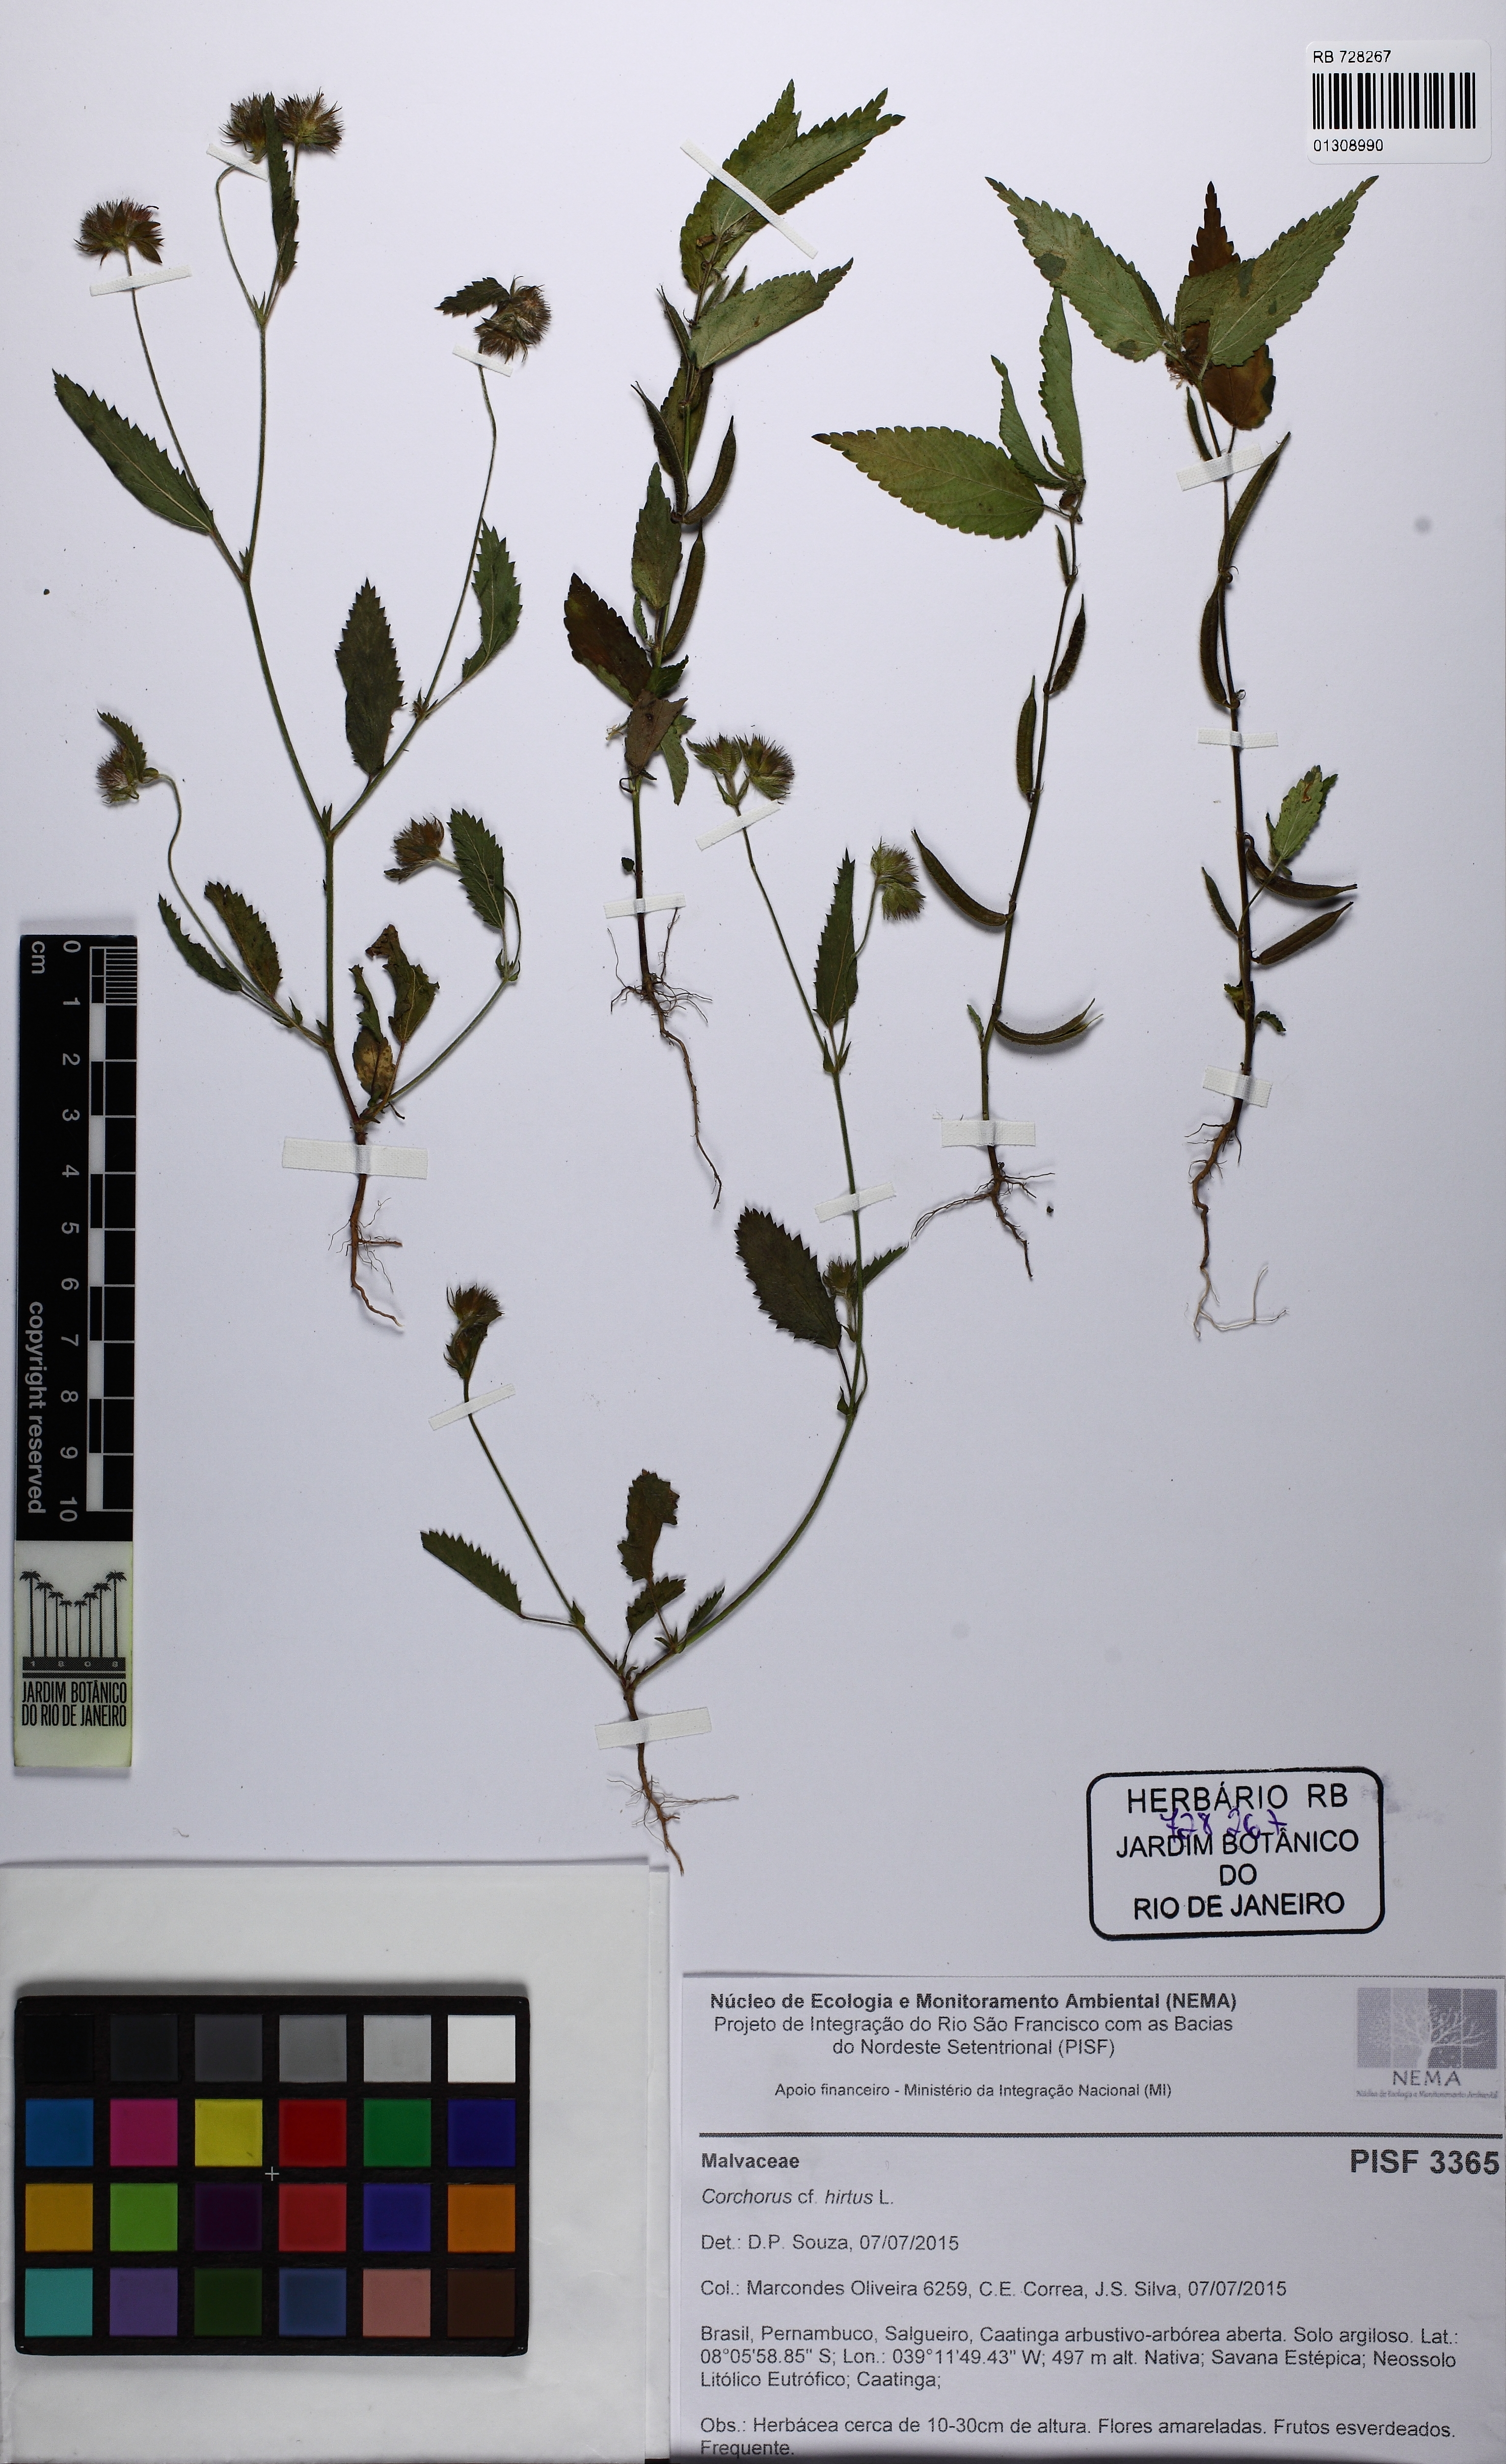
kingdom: Plantae
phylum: Tracheophyta
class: Magnoliopsida
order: Malvales
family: Malvaceae
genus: Corchorus
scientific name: Corchorus hirtus
